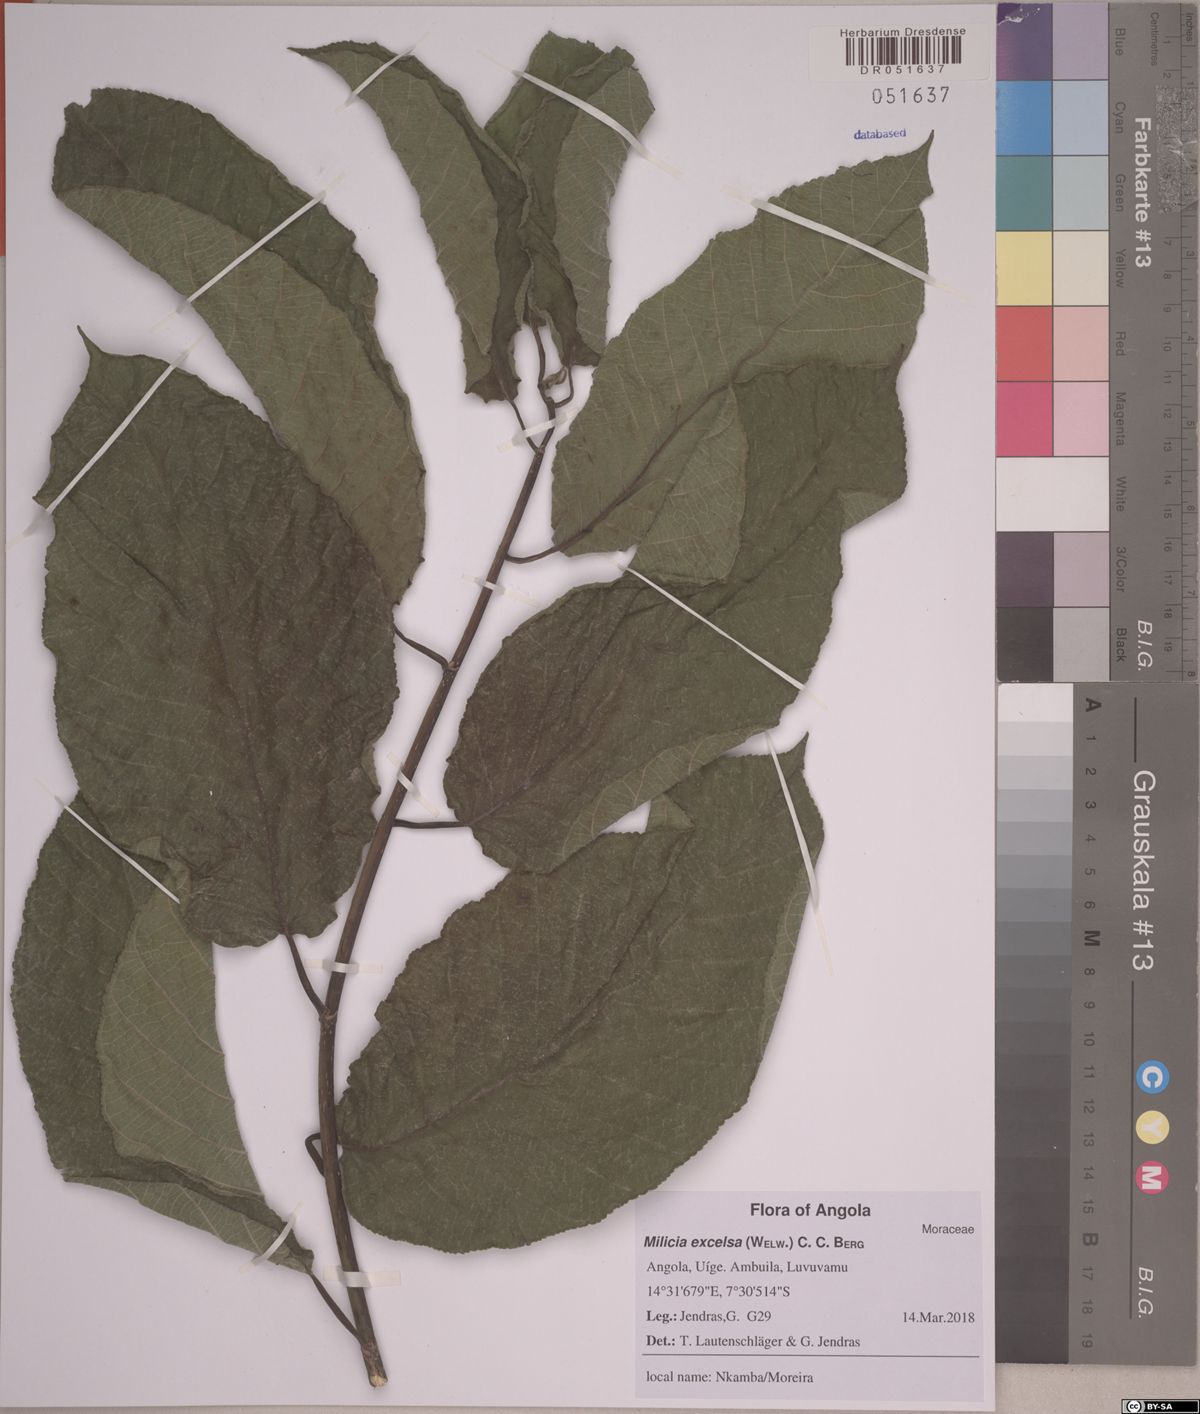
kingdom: Plantae
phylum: Tracheophyta
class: Magnoliopsida
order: Rosales
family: Moraceae
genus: Milicia
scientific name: Milicia excelsa
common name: African teak
